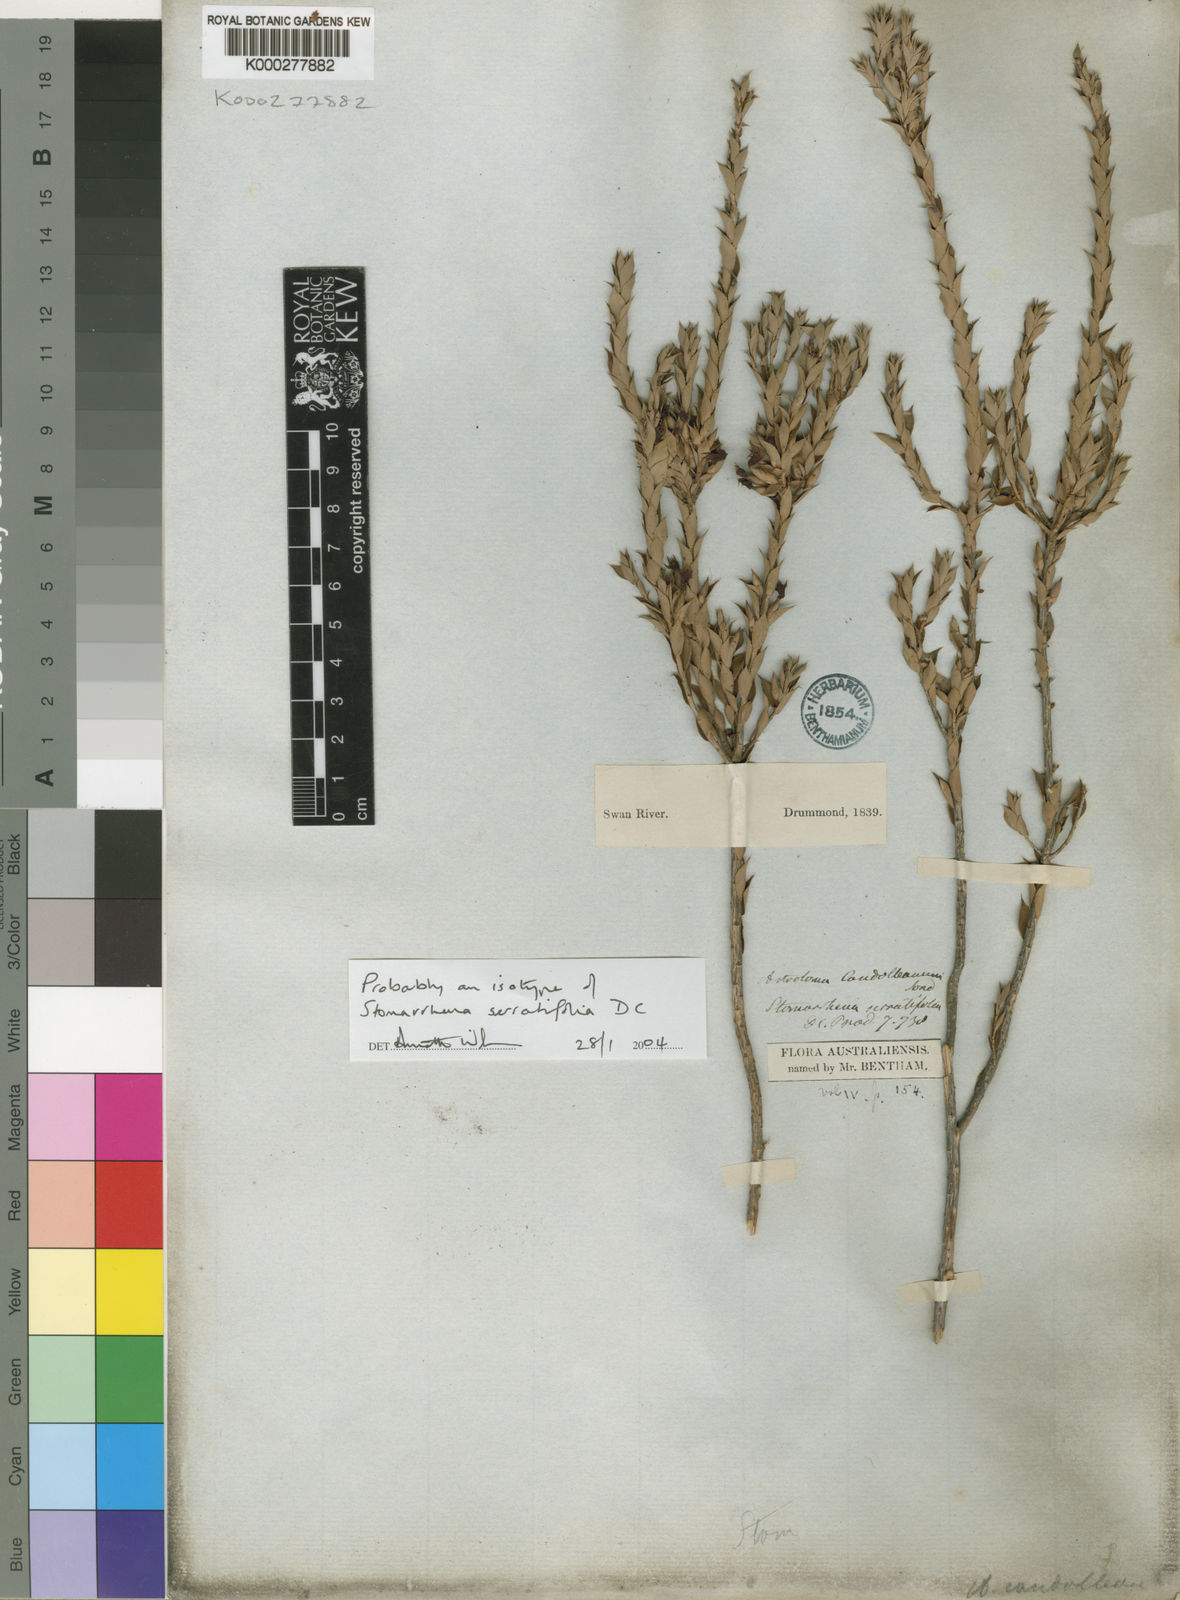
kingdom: Plantae
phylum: Tracheophyta
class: Magnoliopsida
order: Ericales
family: Ericaceae
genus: Styphelia
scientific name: Styphelia serratifolia
